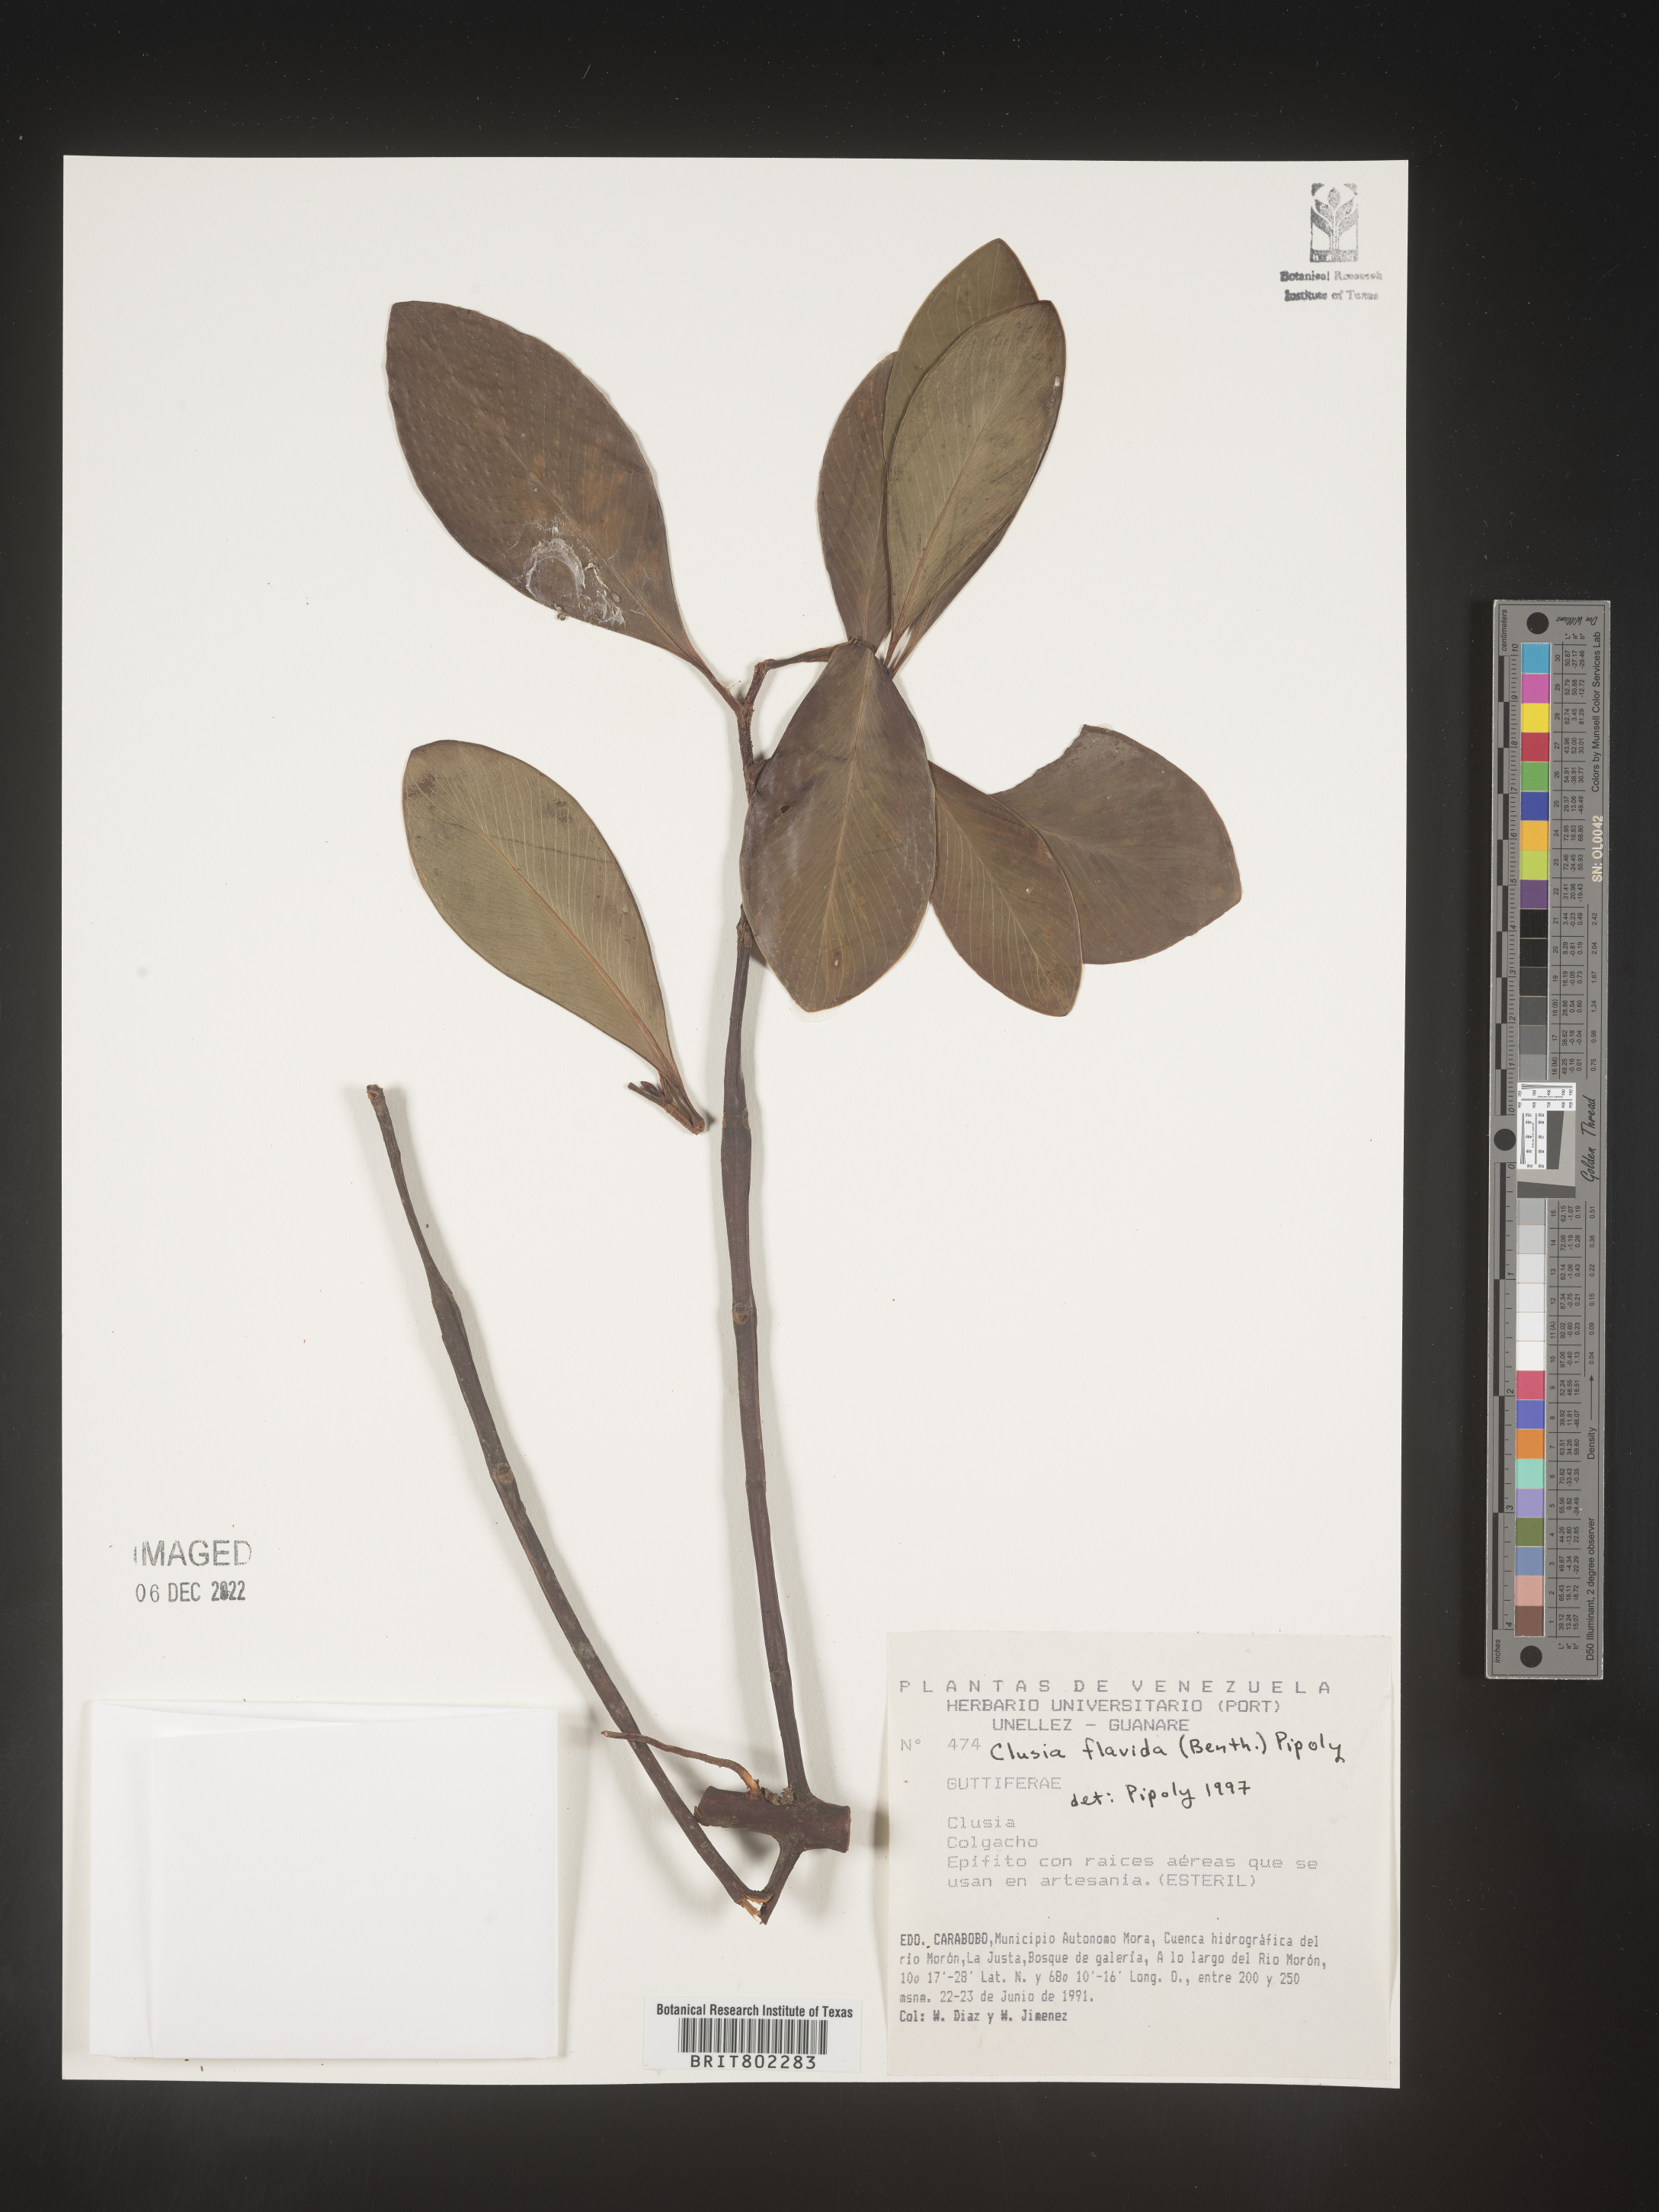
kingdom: Plantae
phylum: Tracheophyta
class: Magnoliopsida
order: Malpighiales
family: Clusiaceae
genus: Clusia
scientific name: Clusia flavida
